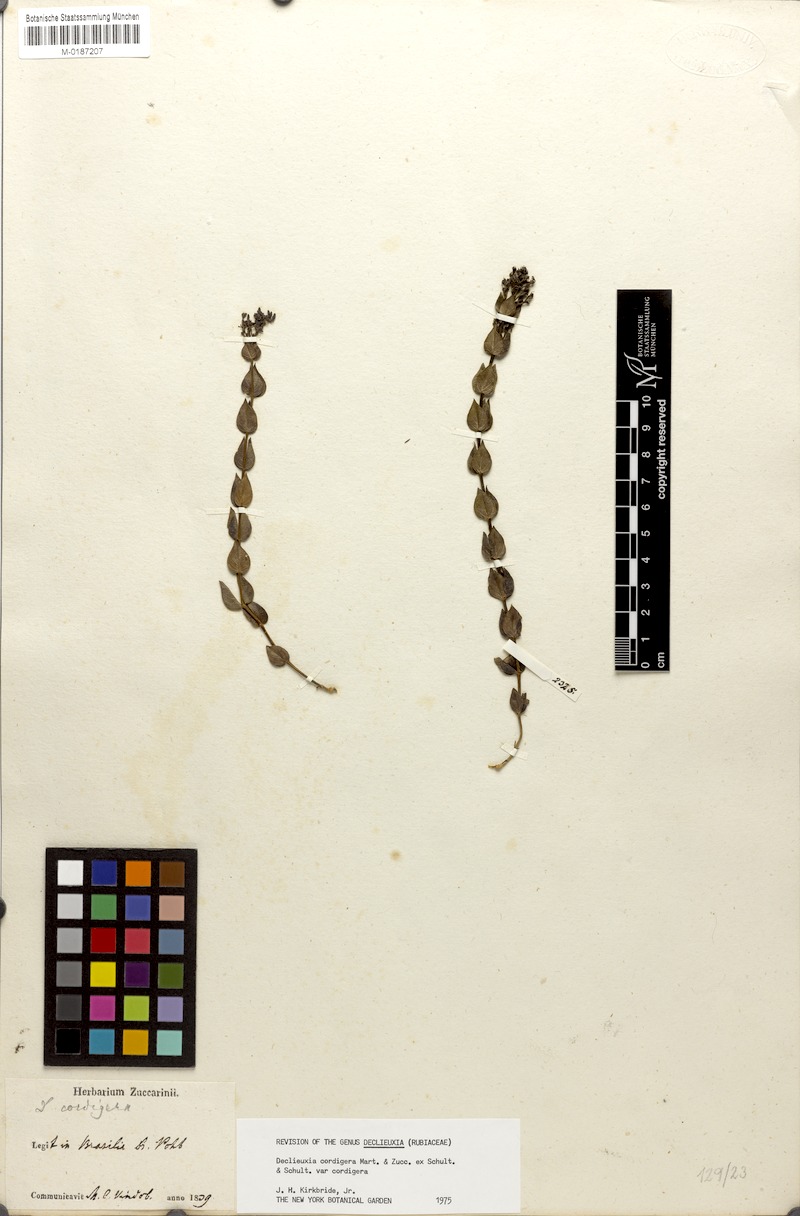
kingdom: Plantae
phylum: Tracheophyta
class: Magnoliopsida
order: Gentianales
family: Rubiaceae
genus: Declieuxia
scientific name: Declieuxia cordigera
